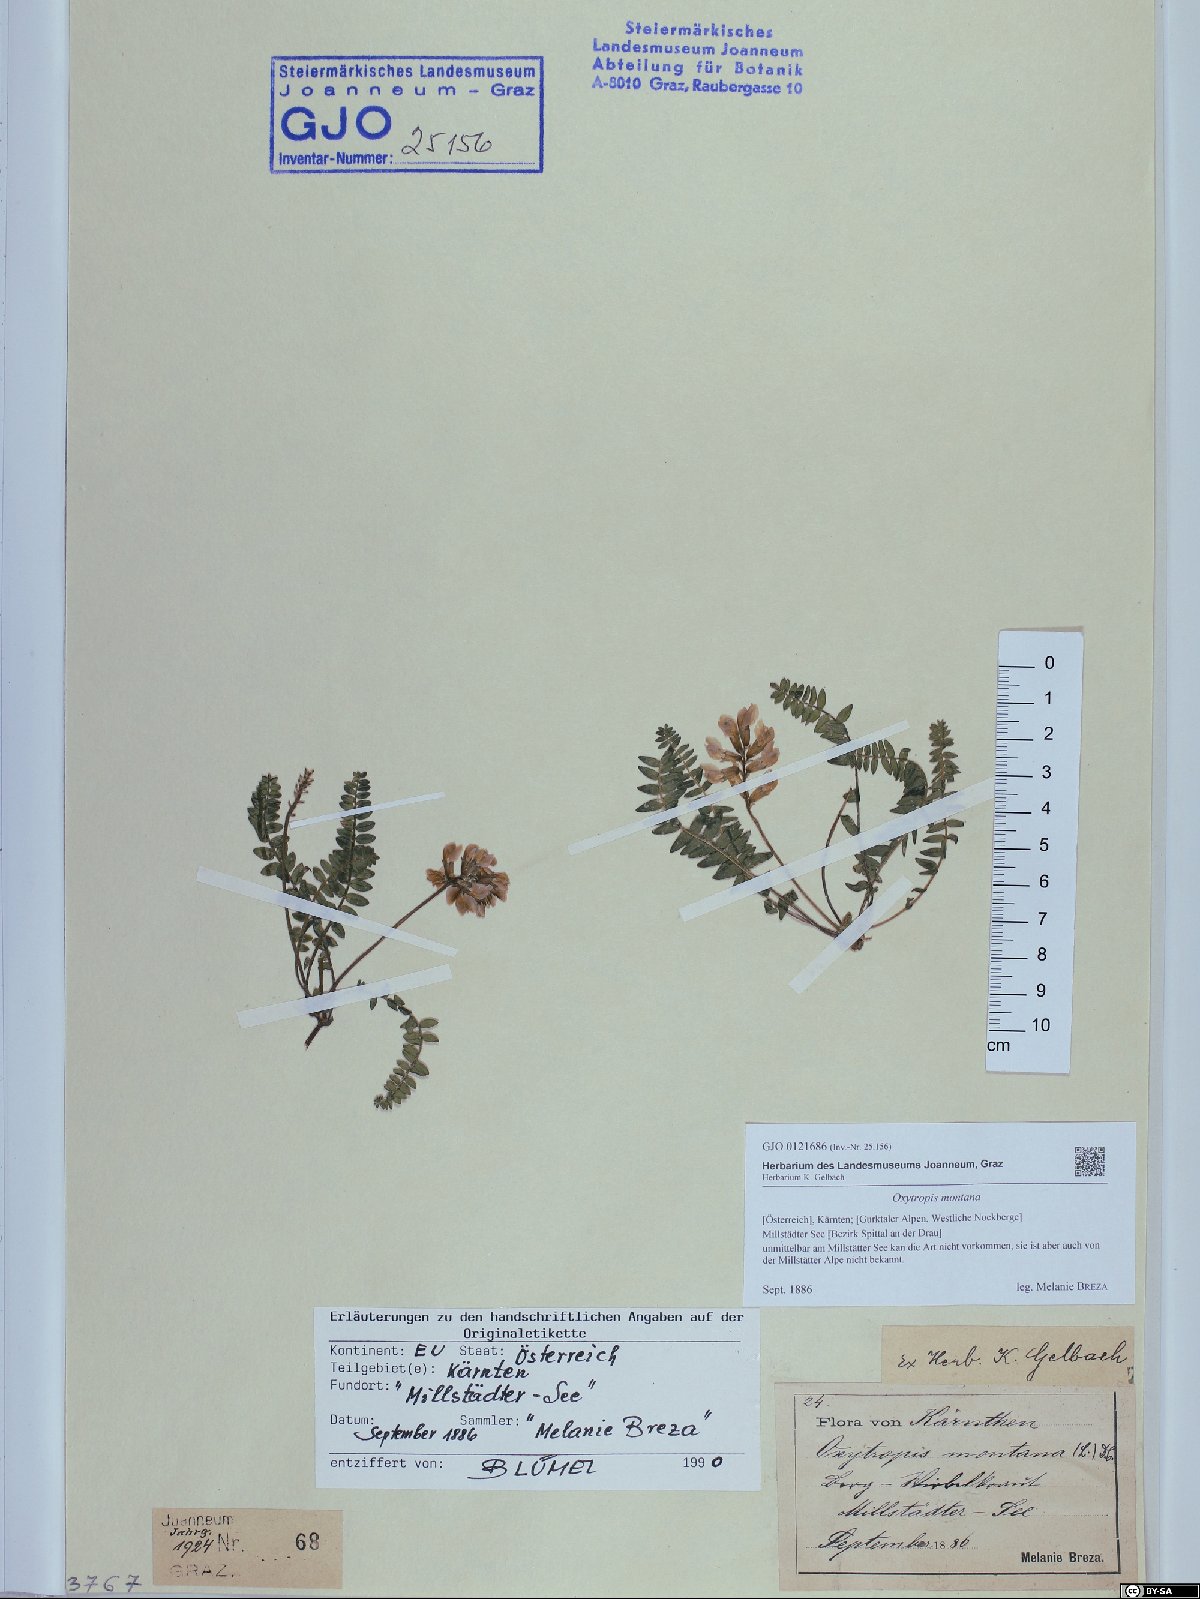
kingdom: Plantae
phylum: Tracheophyta
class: Magnoliopsida
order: Fabales
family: Fabaceae
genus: Oxytropis
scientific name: Oxytropis montana
